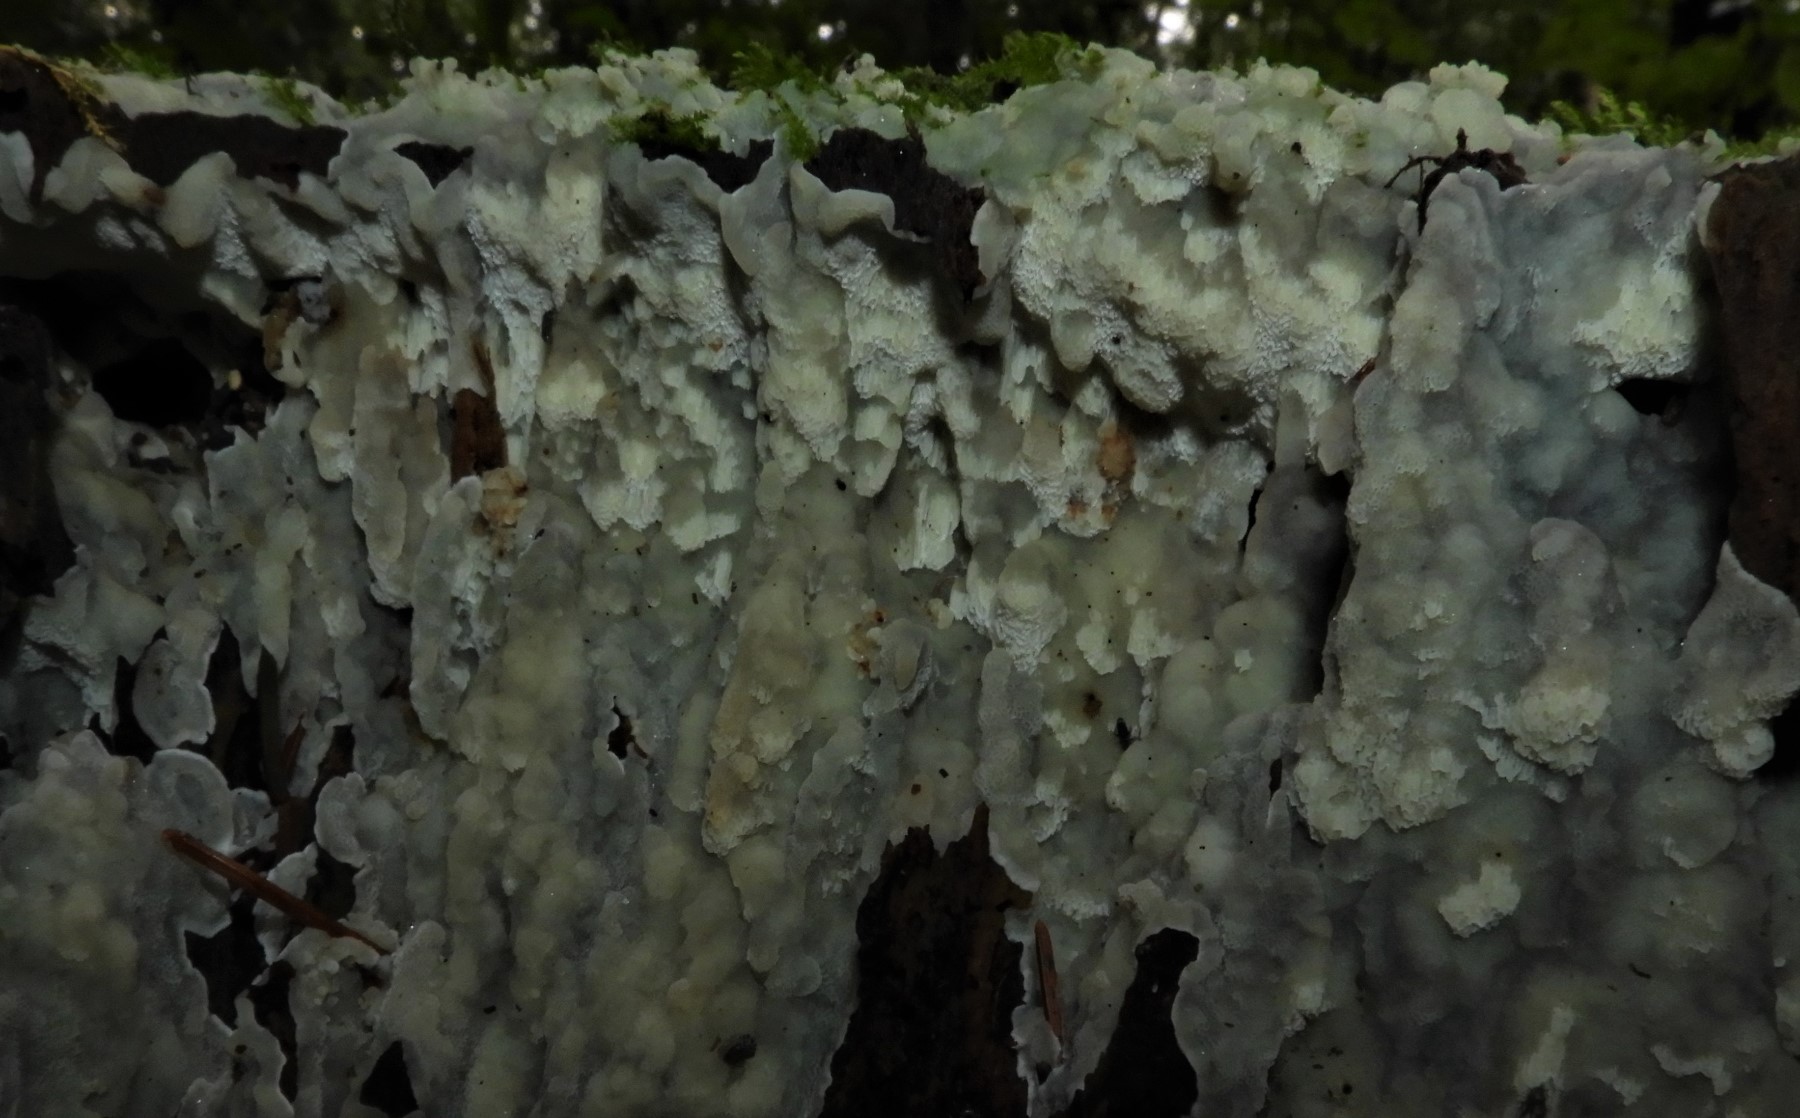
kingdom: Fungi
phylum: Basidiomycota
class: Agaricomycetes
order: Polyporales
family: Meruliaceae
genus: Physisporinus
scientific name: Physisporinus vitreus
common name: mastesvamp
